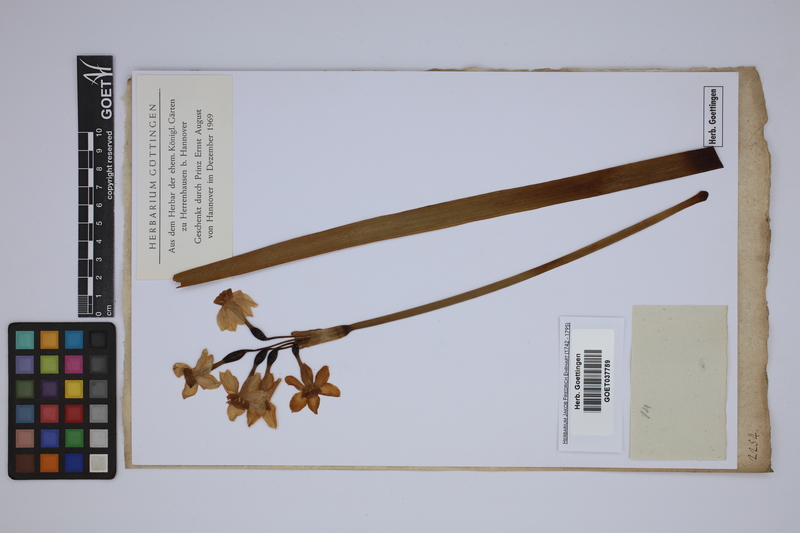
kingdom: Plantae
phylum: Tracheophyta
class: Liliopsida
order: Asparagales
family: Amaryllidaceae
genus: Narcissus
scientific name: Narcissus tazetta
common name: Bunch-flowered daffodil
